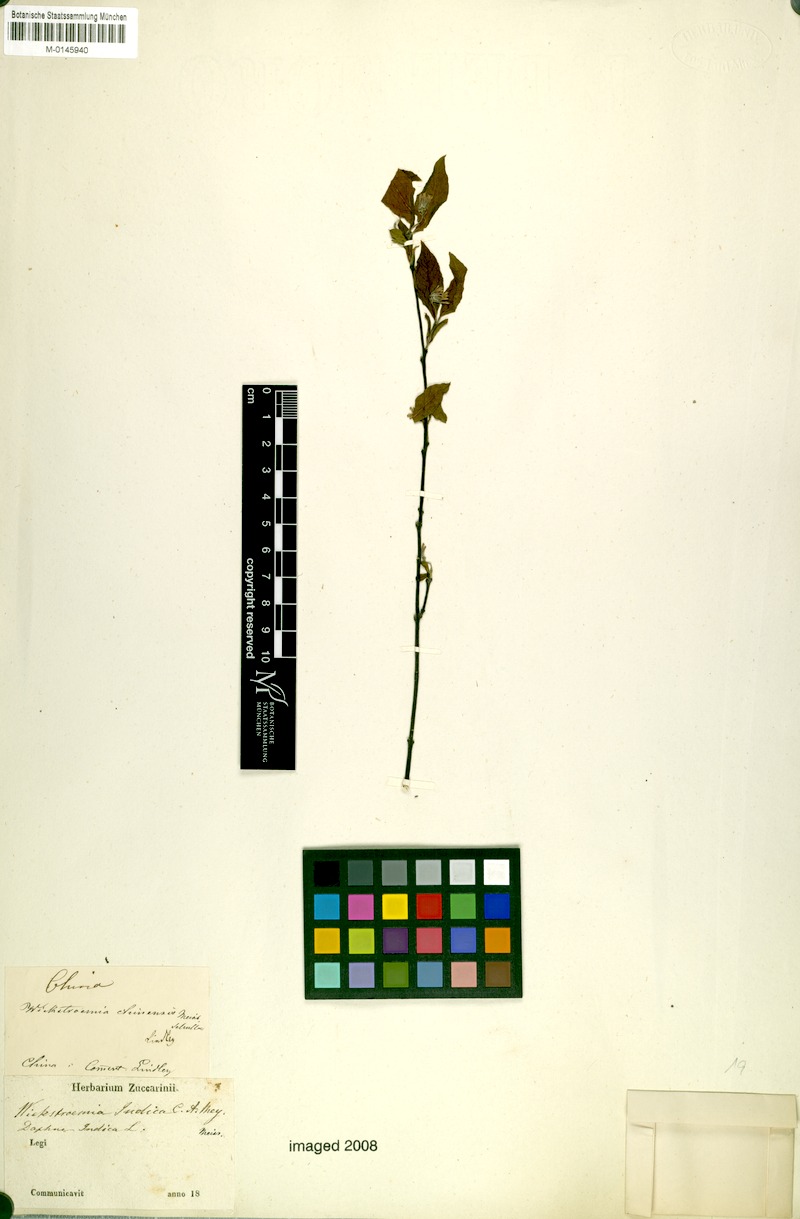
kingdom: Plantae
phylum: Tracheophyta
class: Magnoliopsida
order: Malvales
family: Thymelaeaceae
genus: Stellera
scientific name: Stellera chamaejasme
